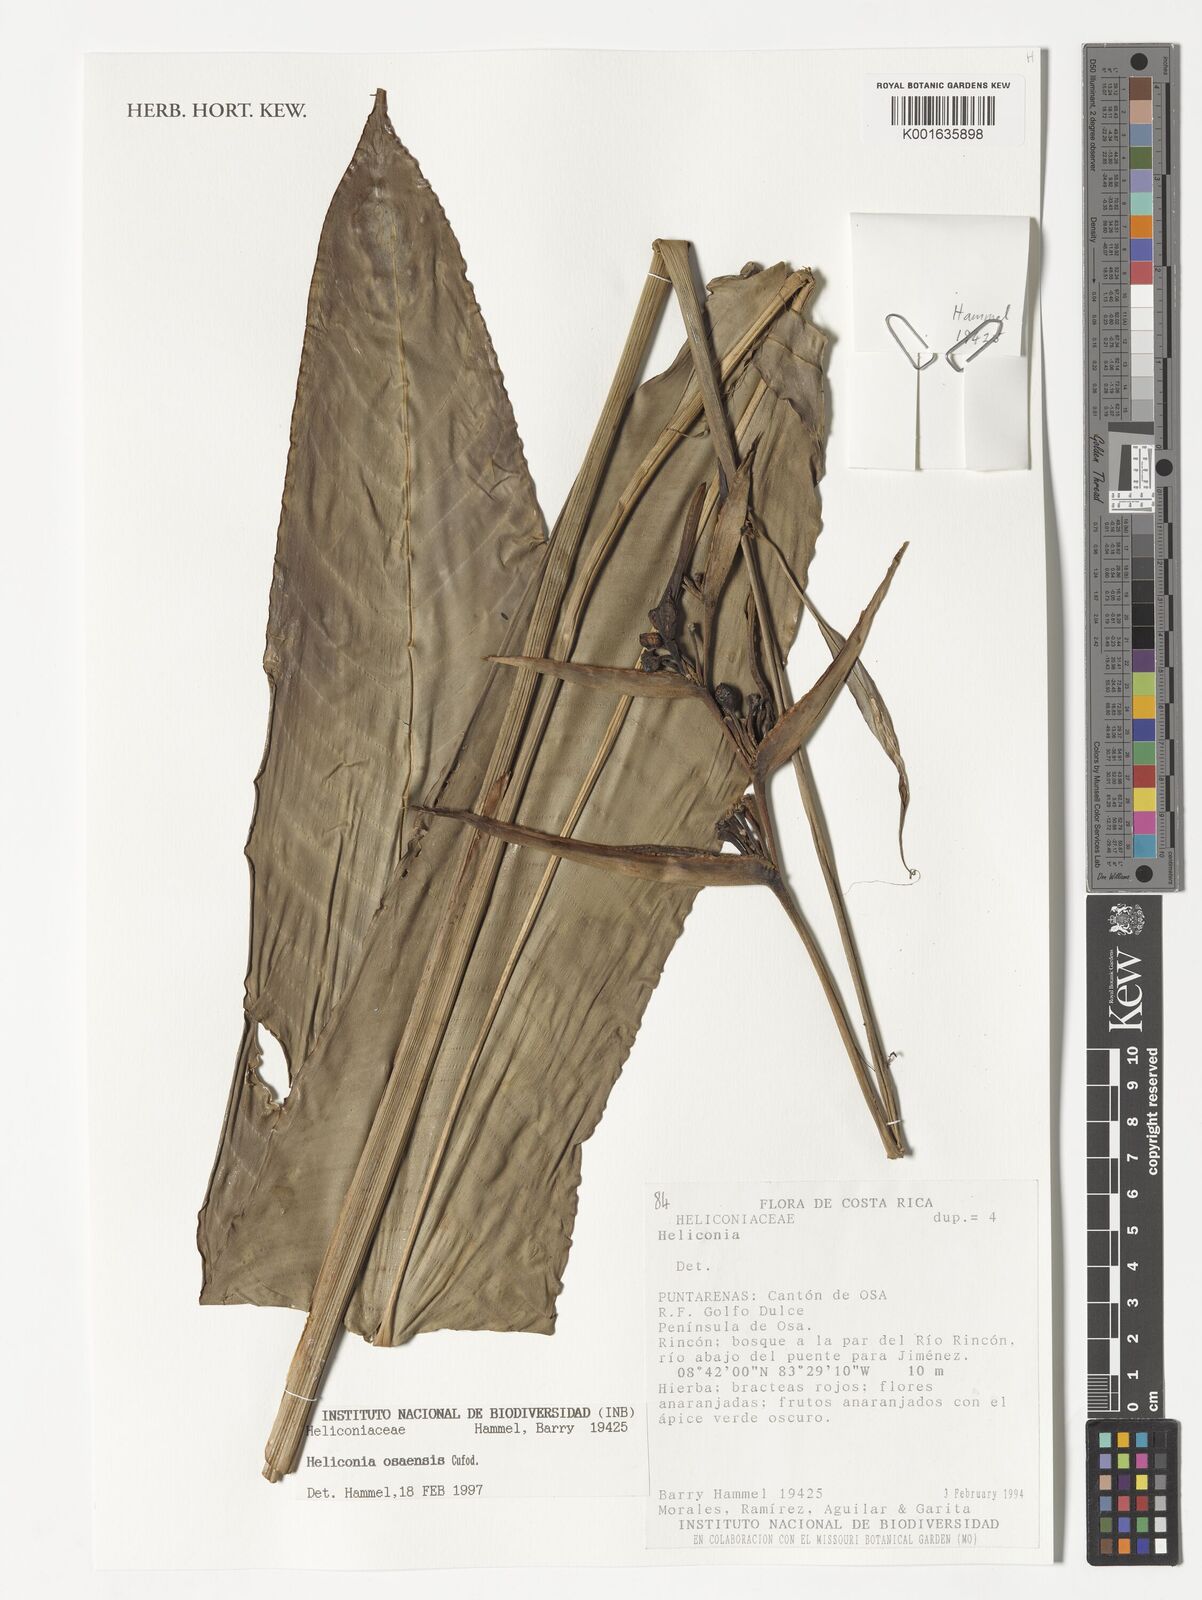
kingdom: Plantae
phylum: Tracheophyta
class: Liliopsida
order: Zingiberales
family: Heliconiaceae
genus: Heliconia
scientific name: Heliconia osaensis
